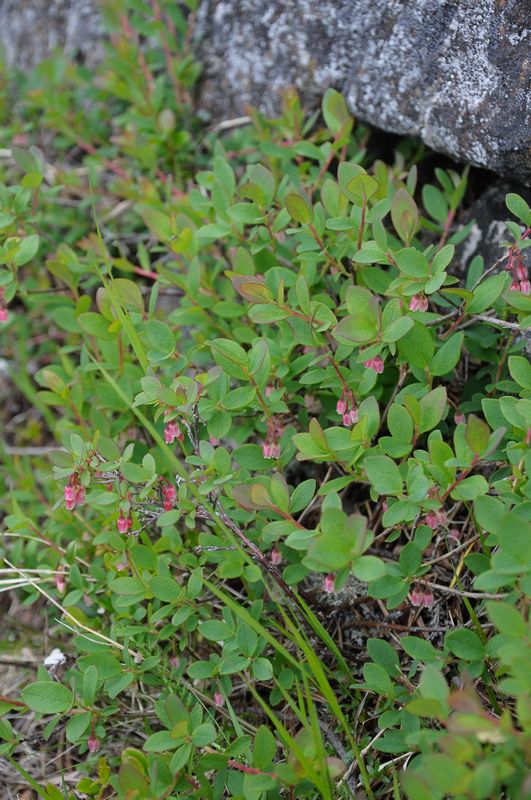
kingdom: Plantae
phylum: Tracheophyta
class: Magnoliopsida
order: Ericales
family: Ericaceae
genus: Vaccinium
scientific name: Vaccinium uliginosum
